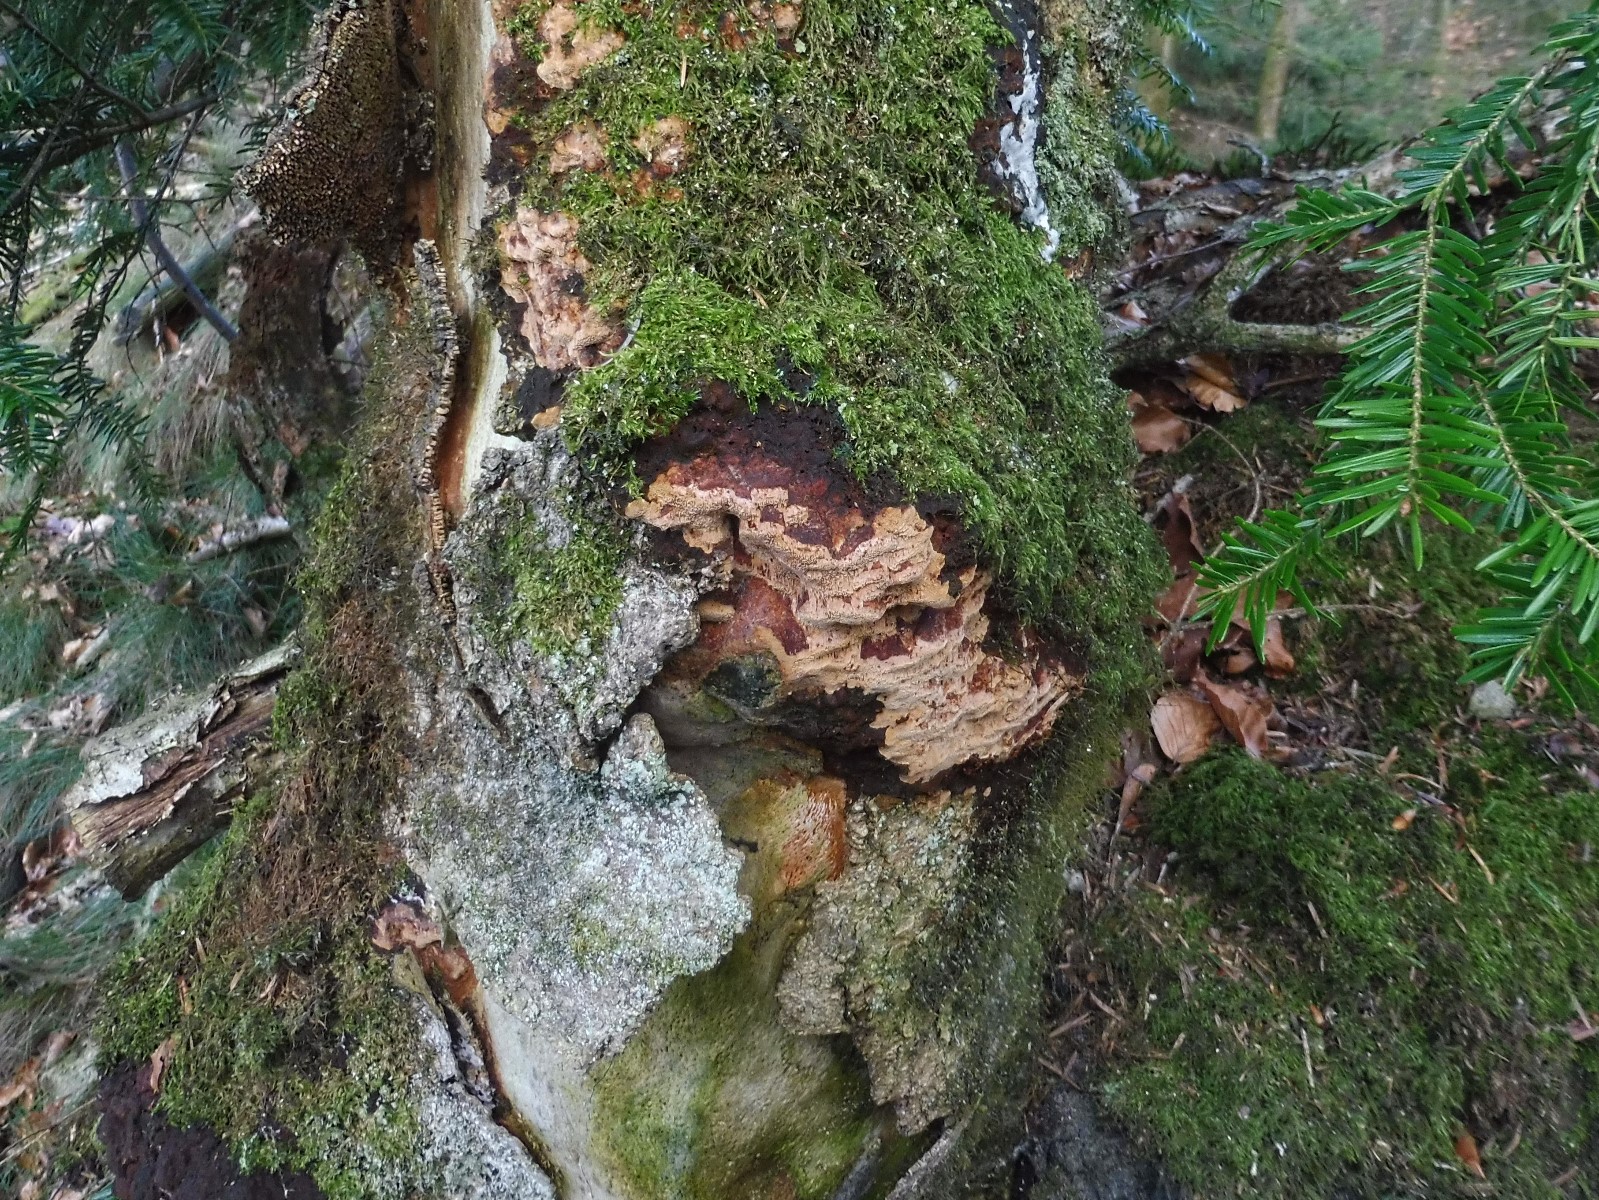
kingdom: Fungi
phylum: Basidiomycota
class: Agaricomycetes
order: Hymenochaetales
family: Hymenochaetaceae
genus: Fuscoporia
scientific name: Fuscoporia ferrea
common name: skorpe-ildporesvamp
